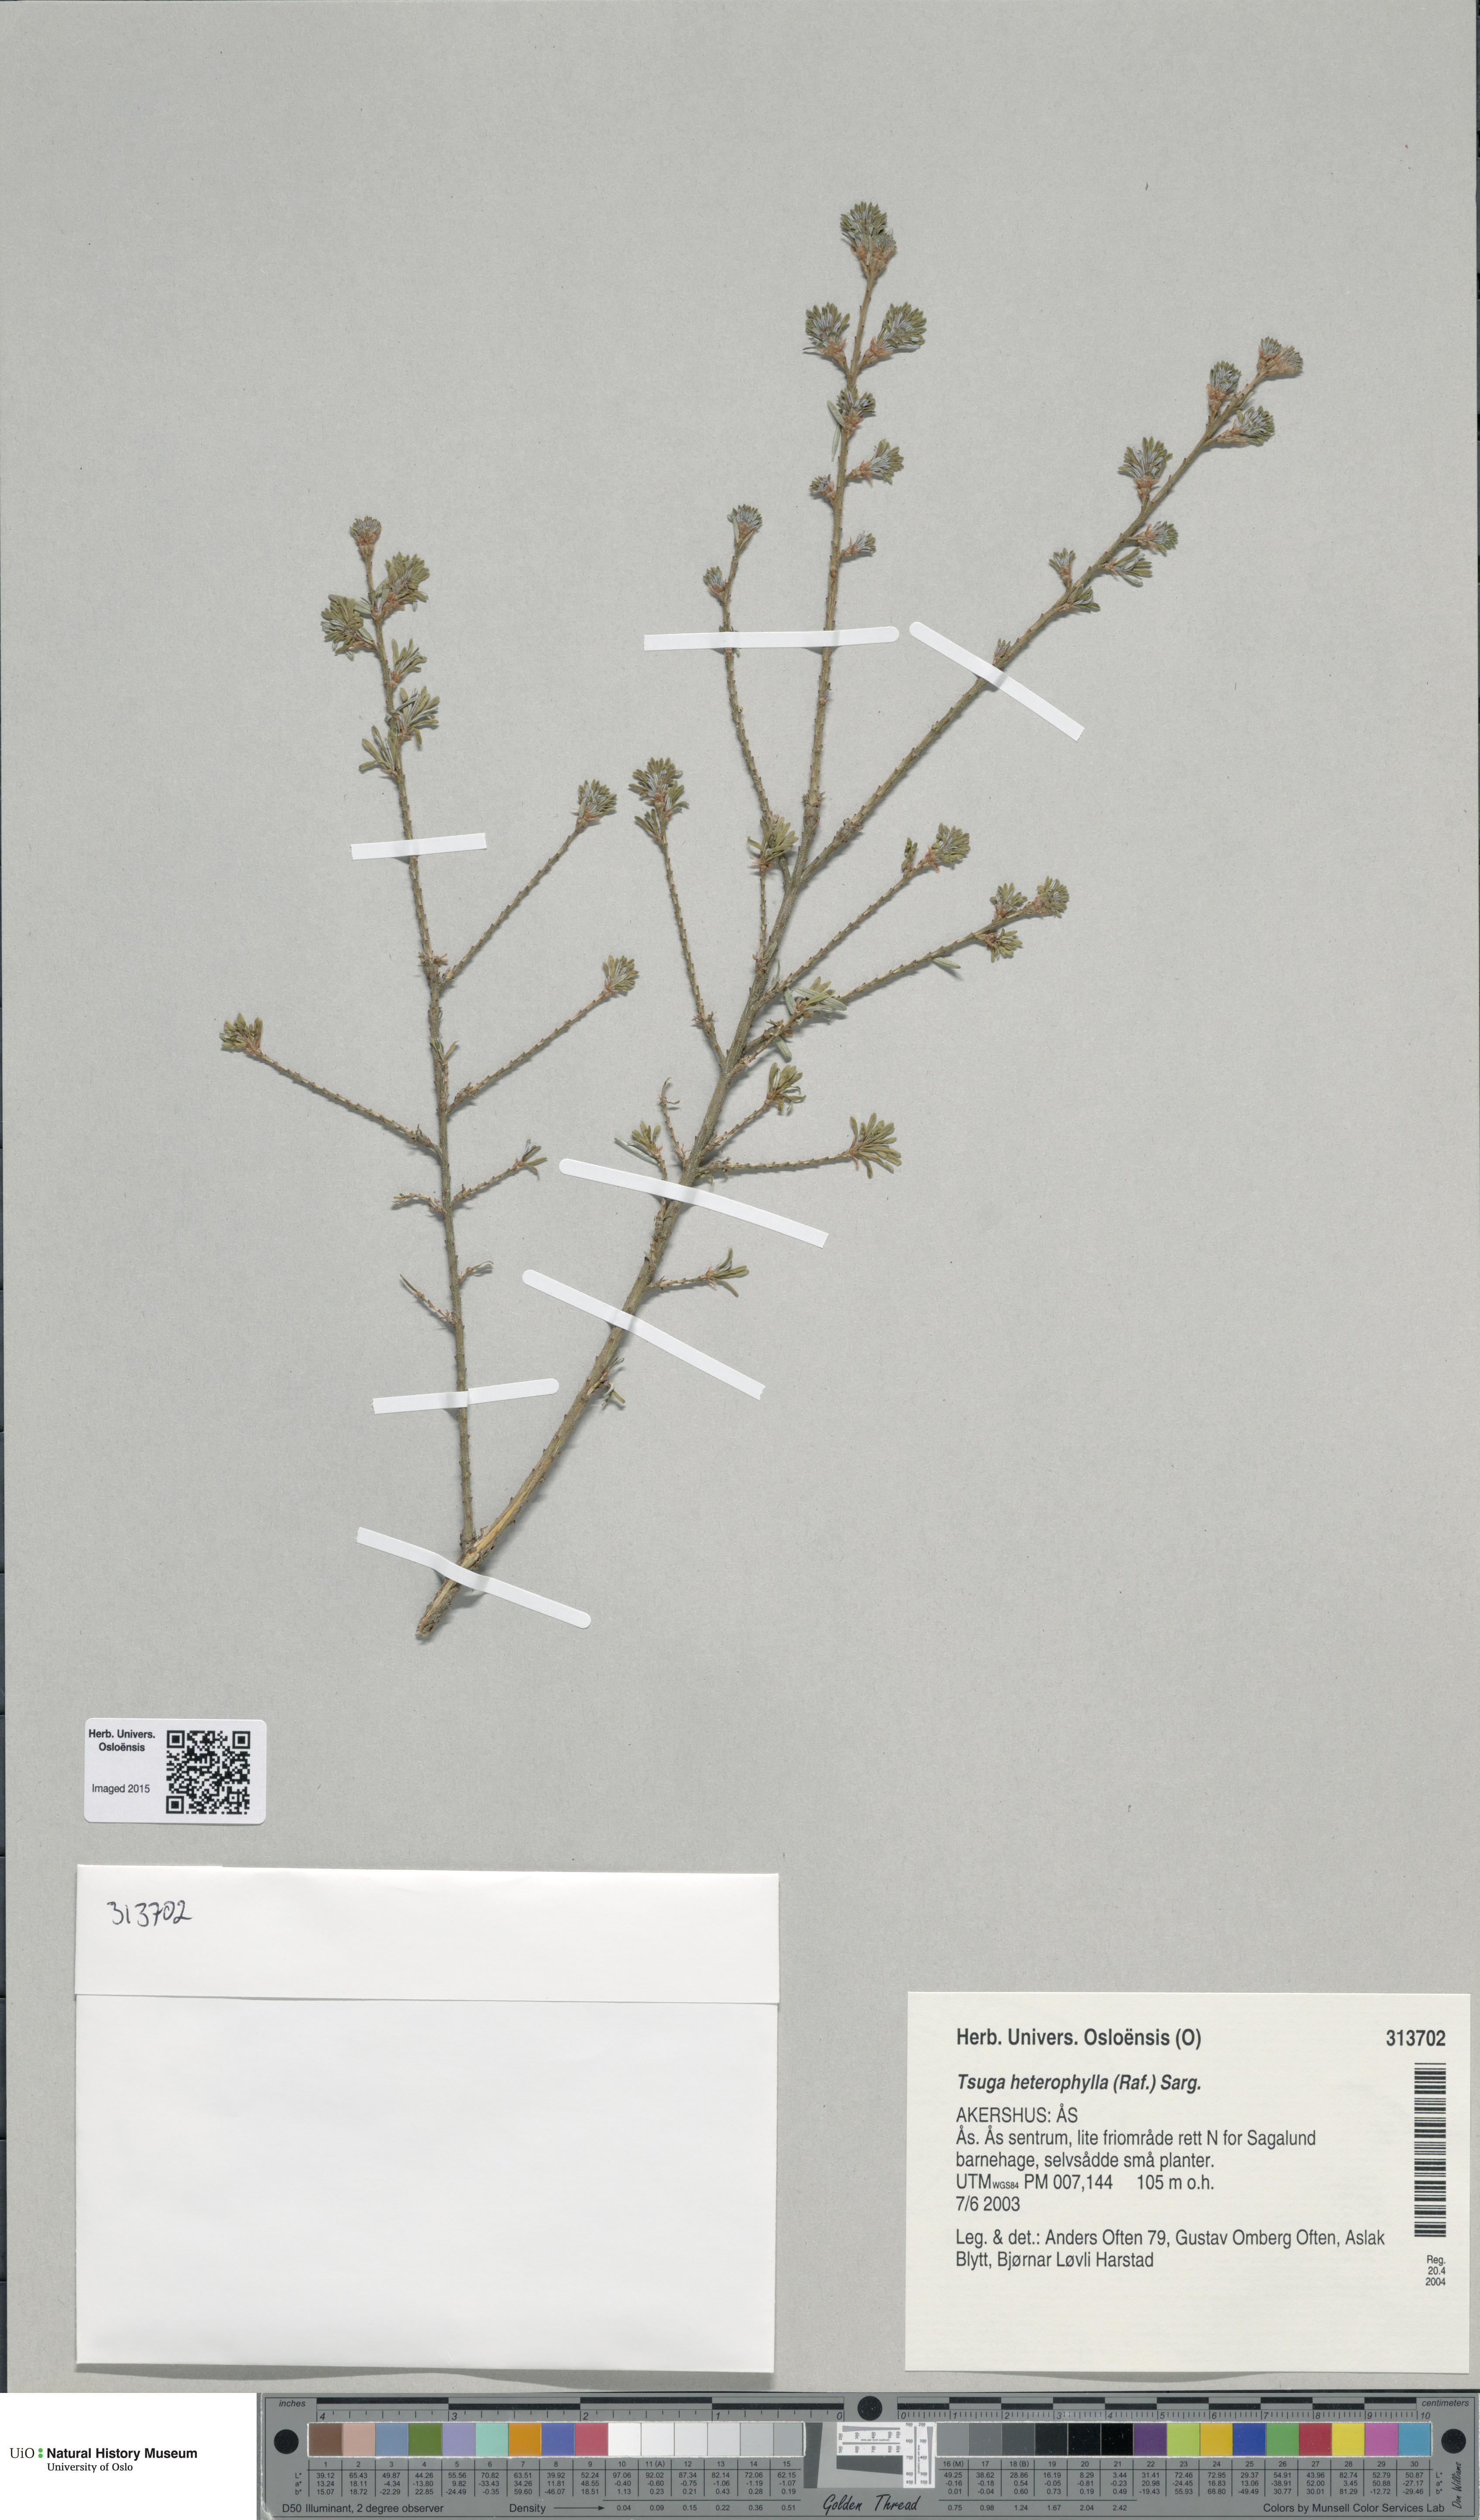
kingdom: Plantae
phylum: Tracheophyta
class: Pinopsida
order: Pinales
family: Pinaceae
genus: Tsuga
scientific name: Tsuga heterophylla
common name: Western hemlock
